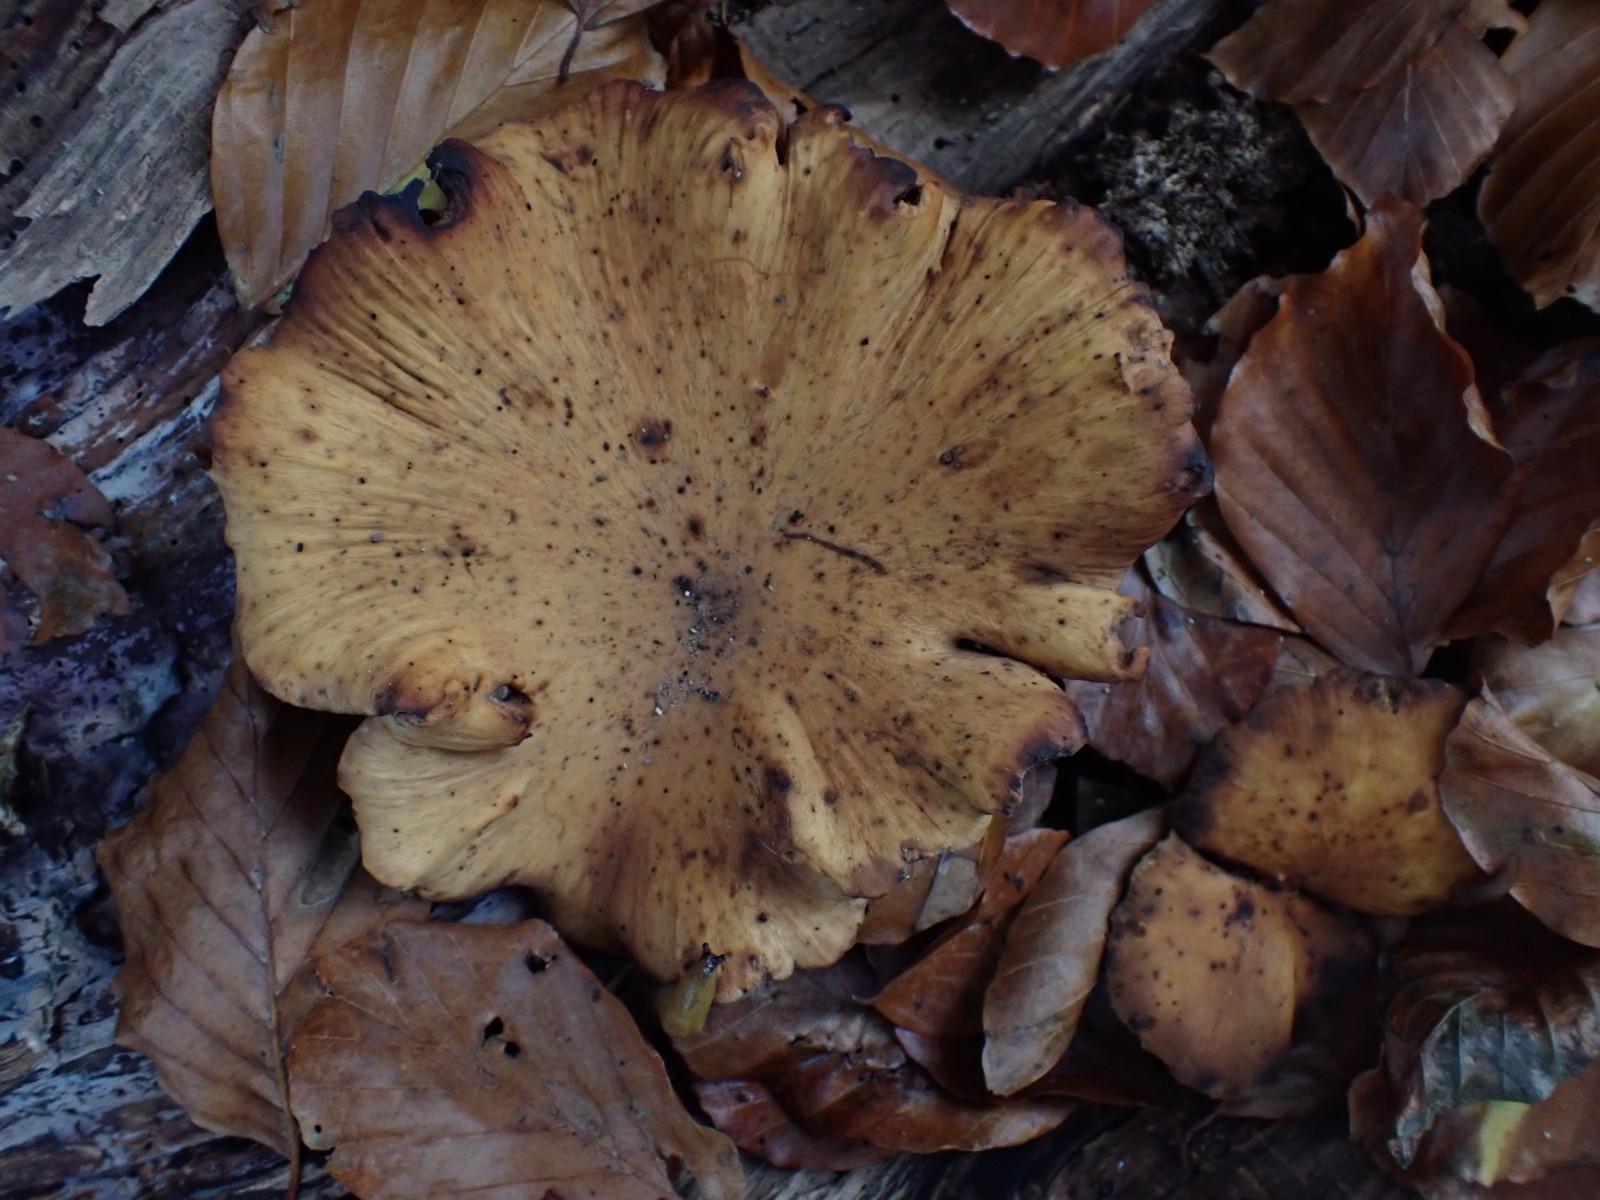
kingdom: Fungi
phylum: Basidiomycota
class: Agaricomycetes
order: Polyporales
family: Polyporaceae
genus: Cerioporus
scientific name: Cerioporus varius
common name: foranderlig stilkporesvamp
